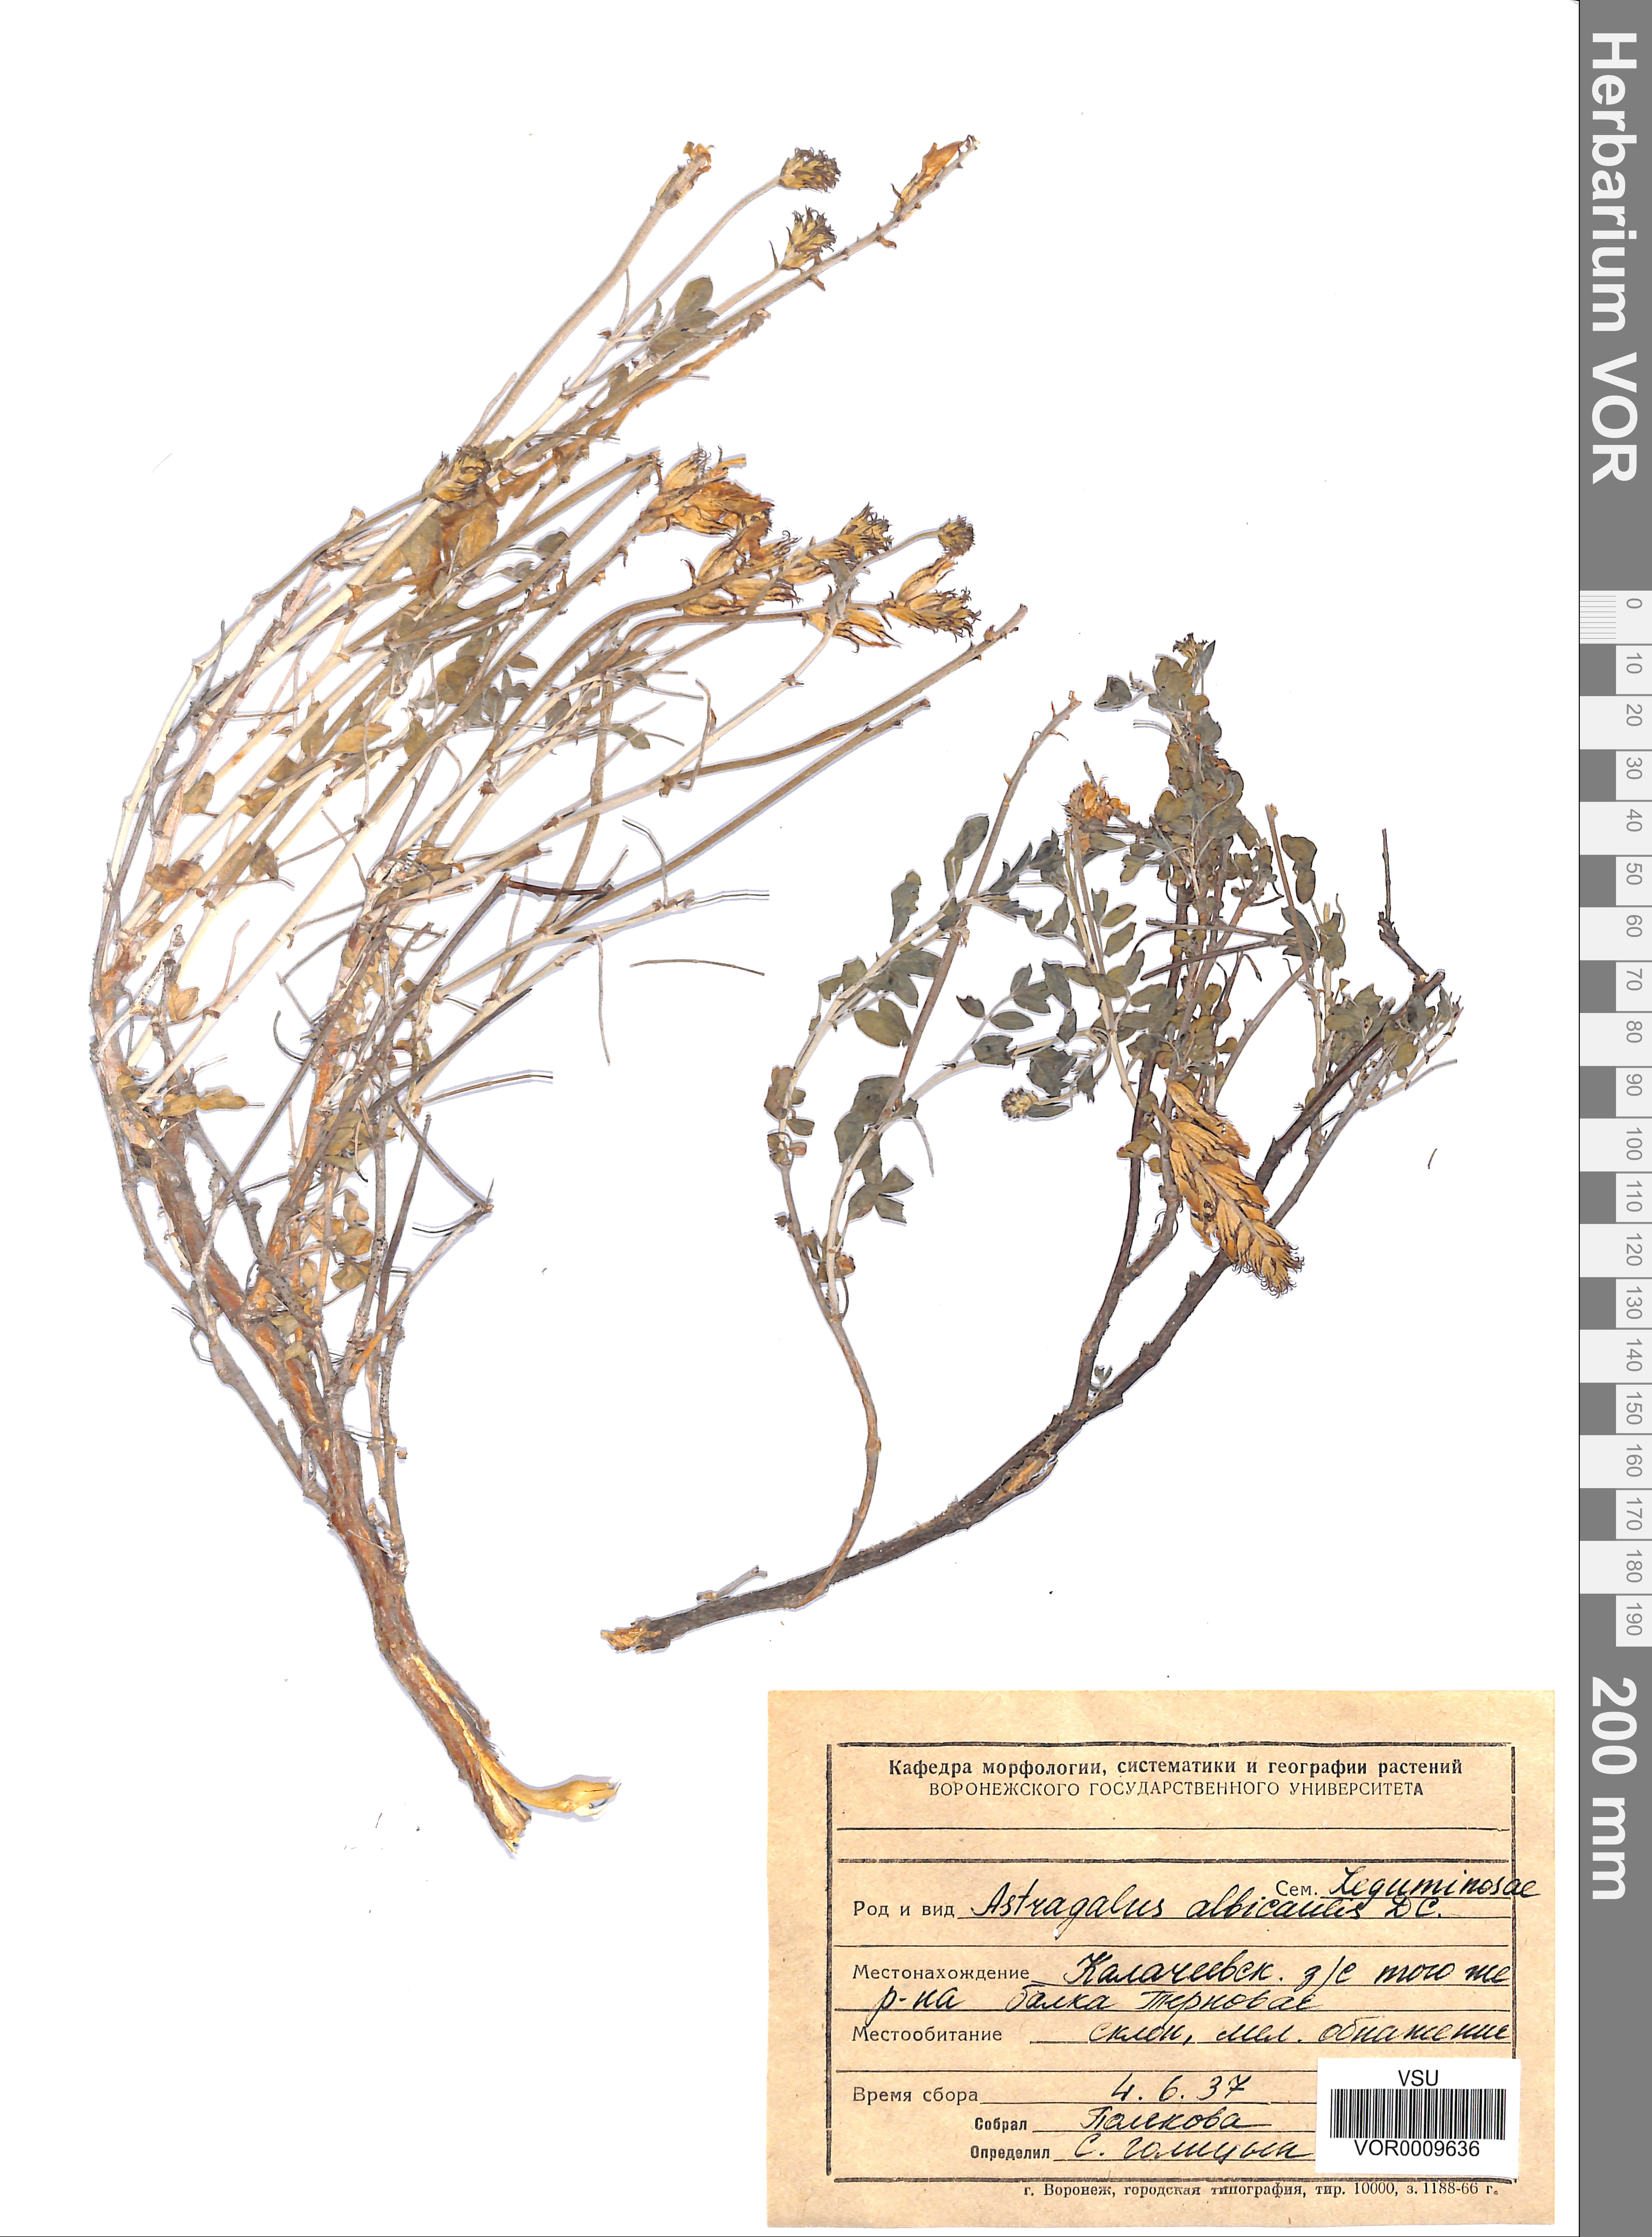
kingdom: Plantae
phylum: Tracheophyta
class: Magnoliopsida
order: Fabales
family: Fabaceae
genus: Astragalus
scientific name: Astragalus albicaulis
